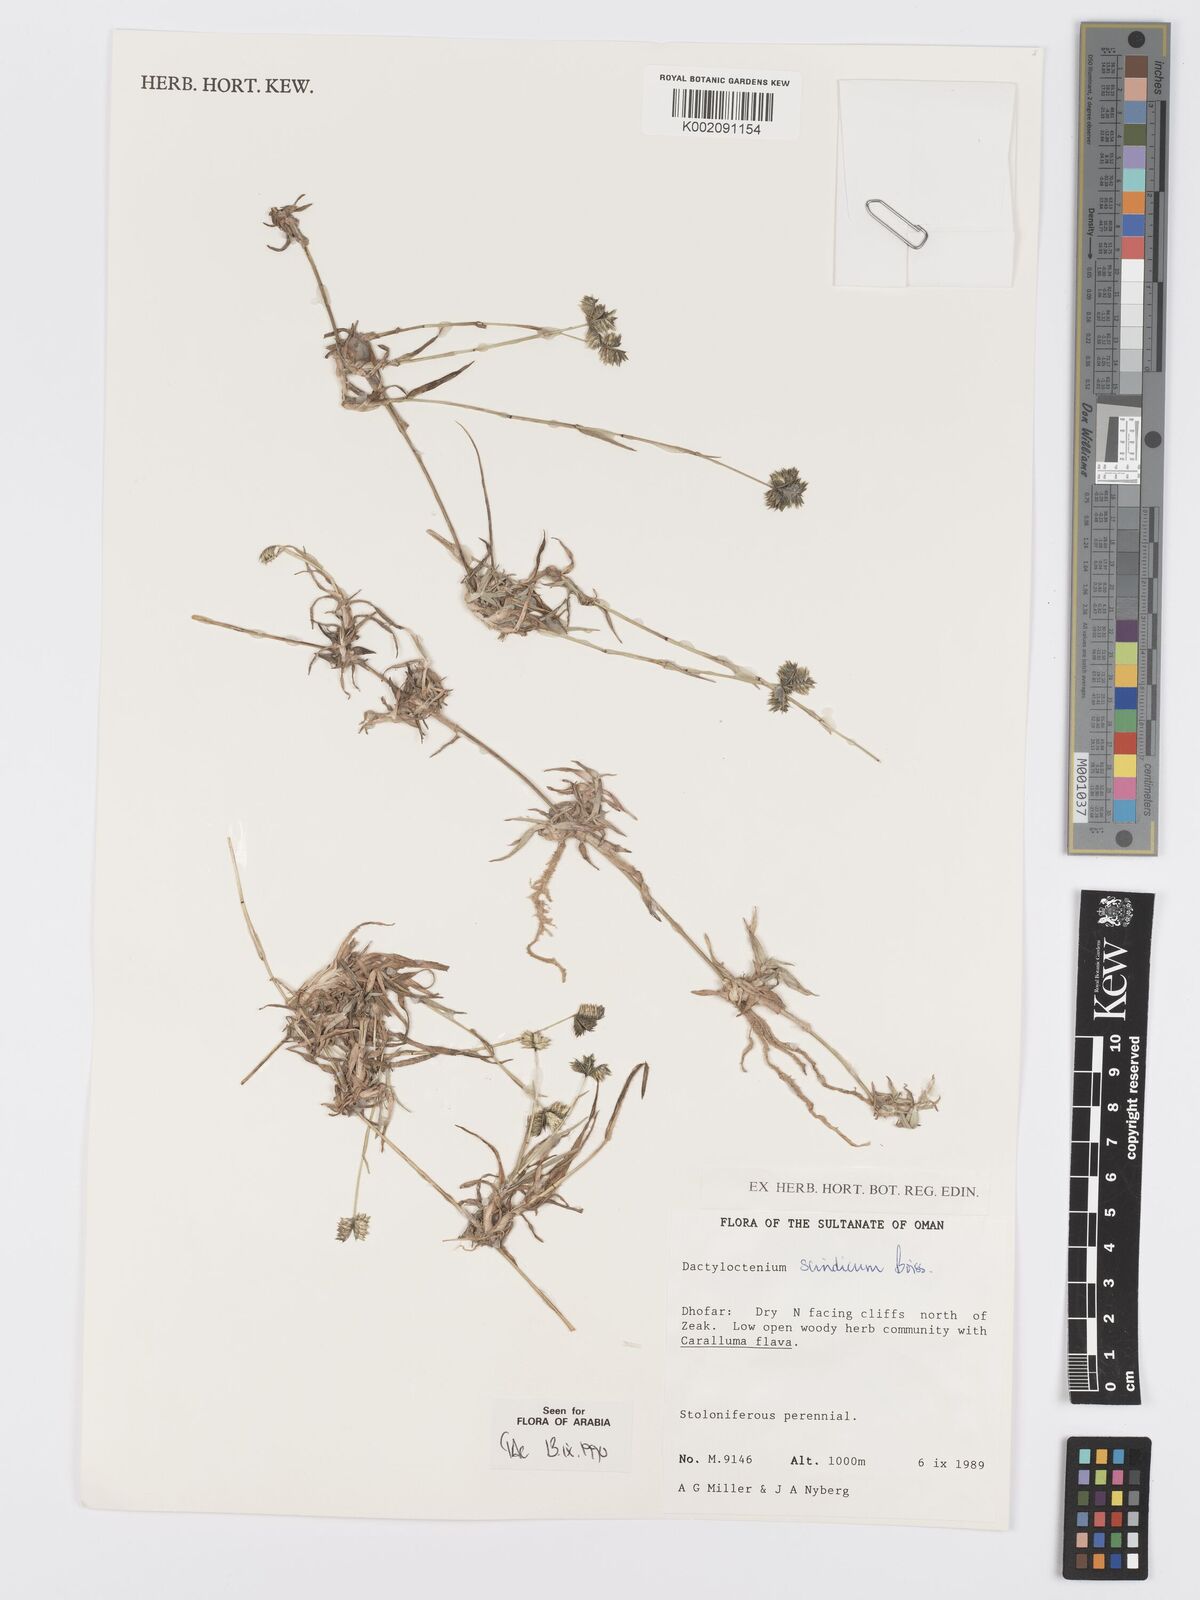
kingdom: Plantae
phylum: Tracheophyta
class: Liliopsida
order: Poales
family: Poaceae
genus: Dactyloctenium
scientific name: Dactyloctenium scindicum
